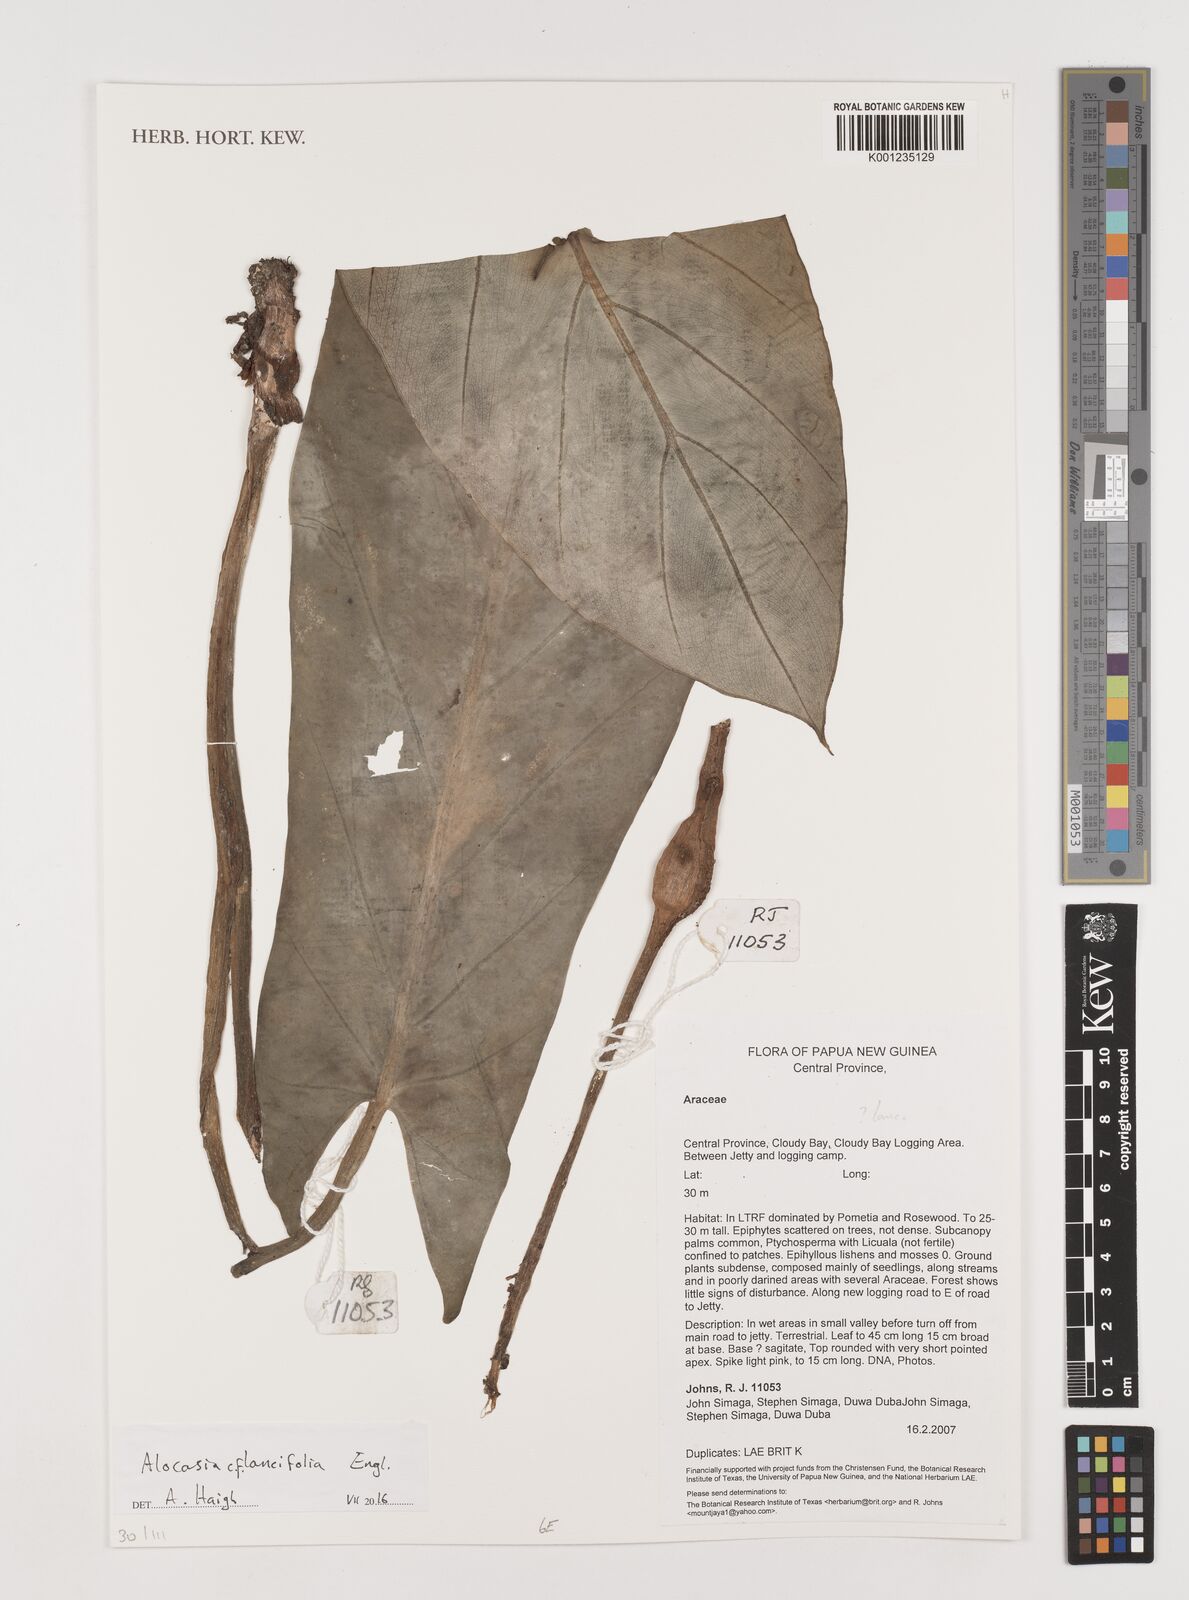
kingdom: Plantae
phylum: Tracheophyta
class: Liliopsida
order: Alismatales
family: Araceae
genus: Alocasia
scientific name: Alocasia lancifolia
